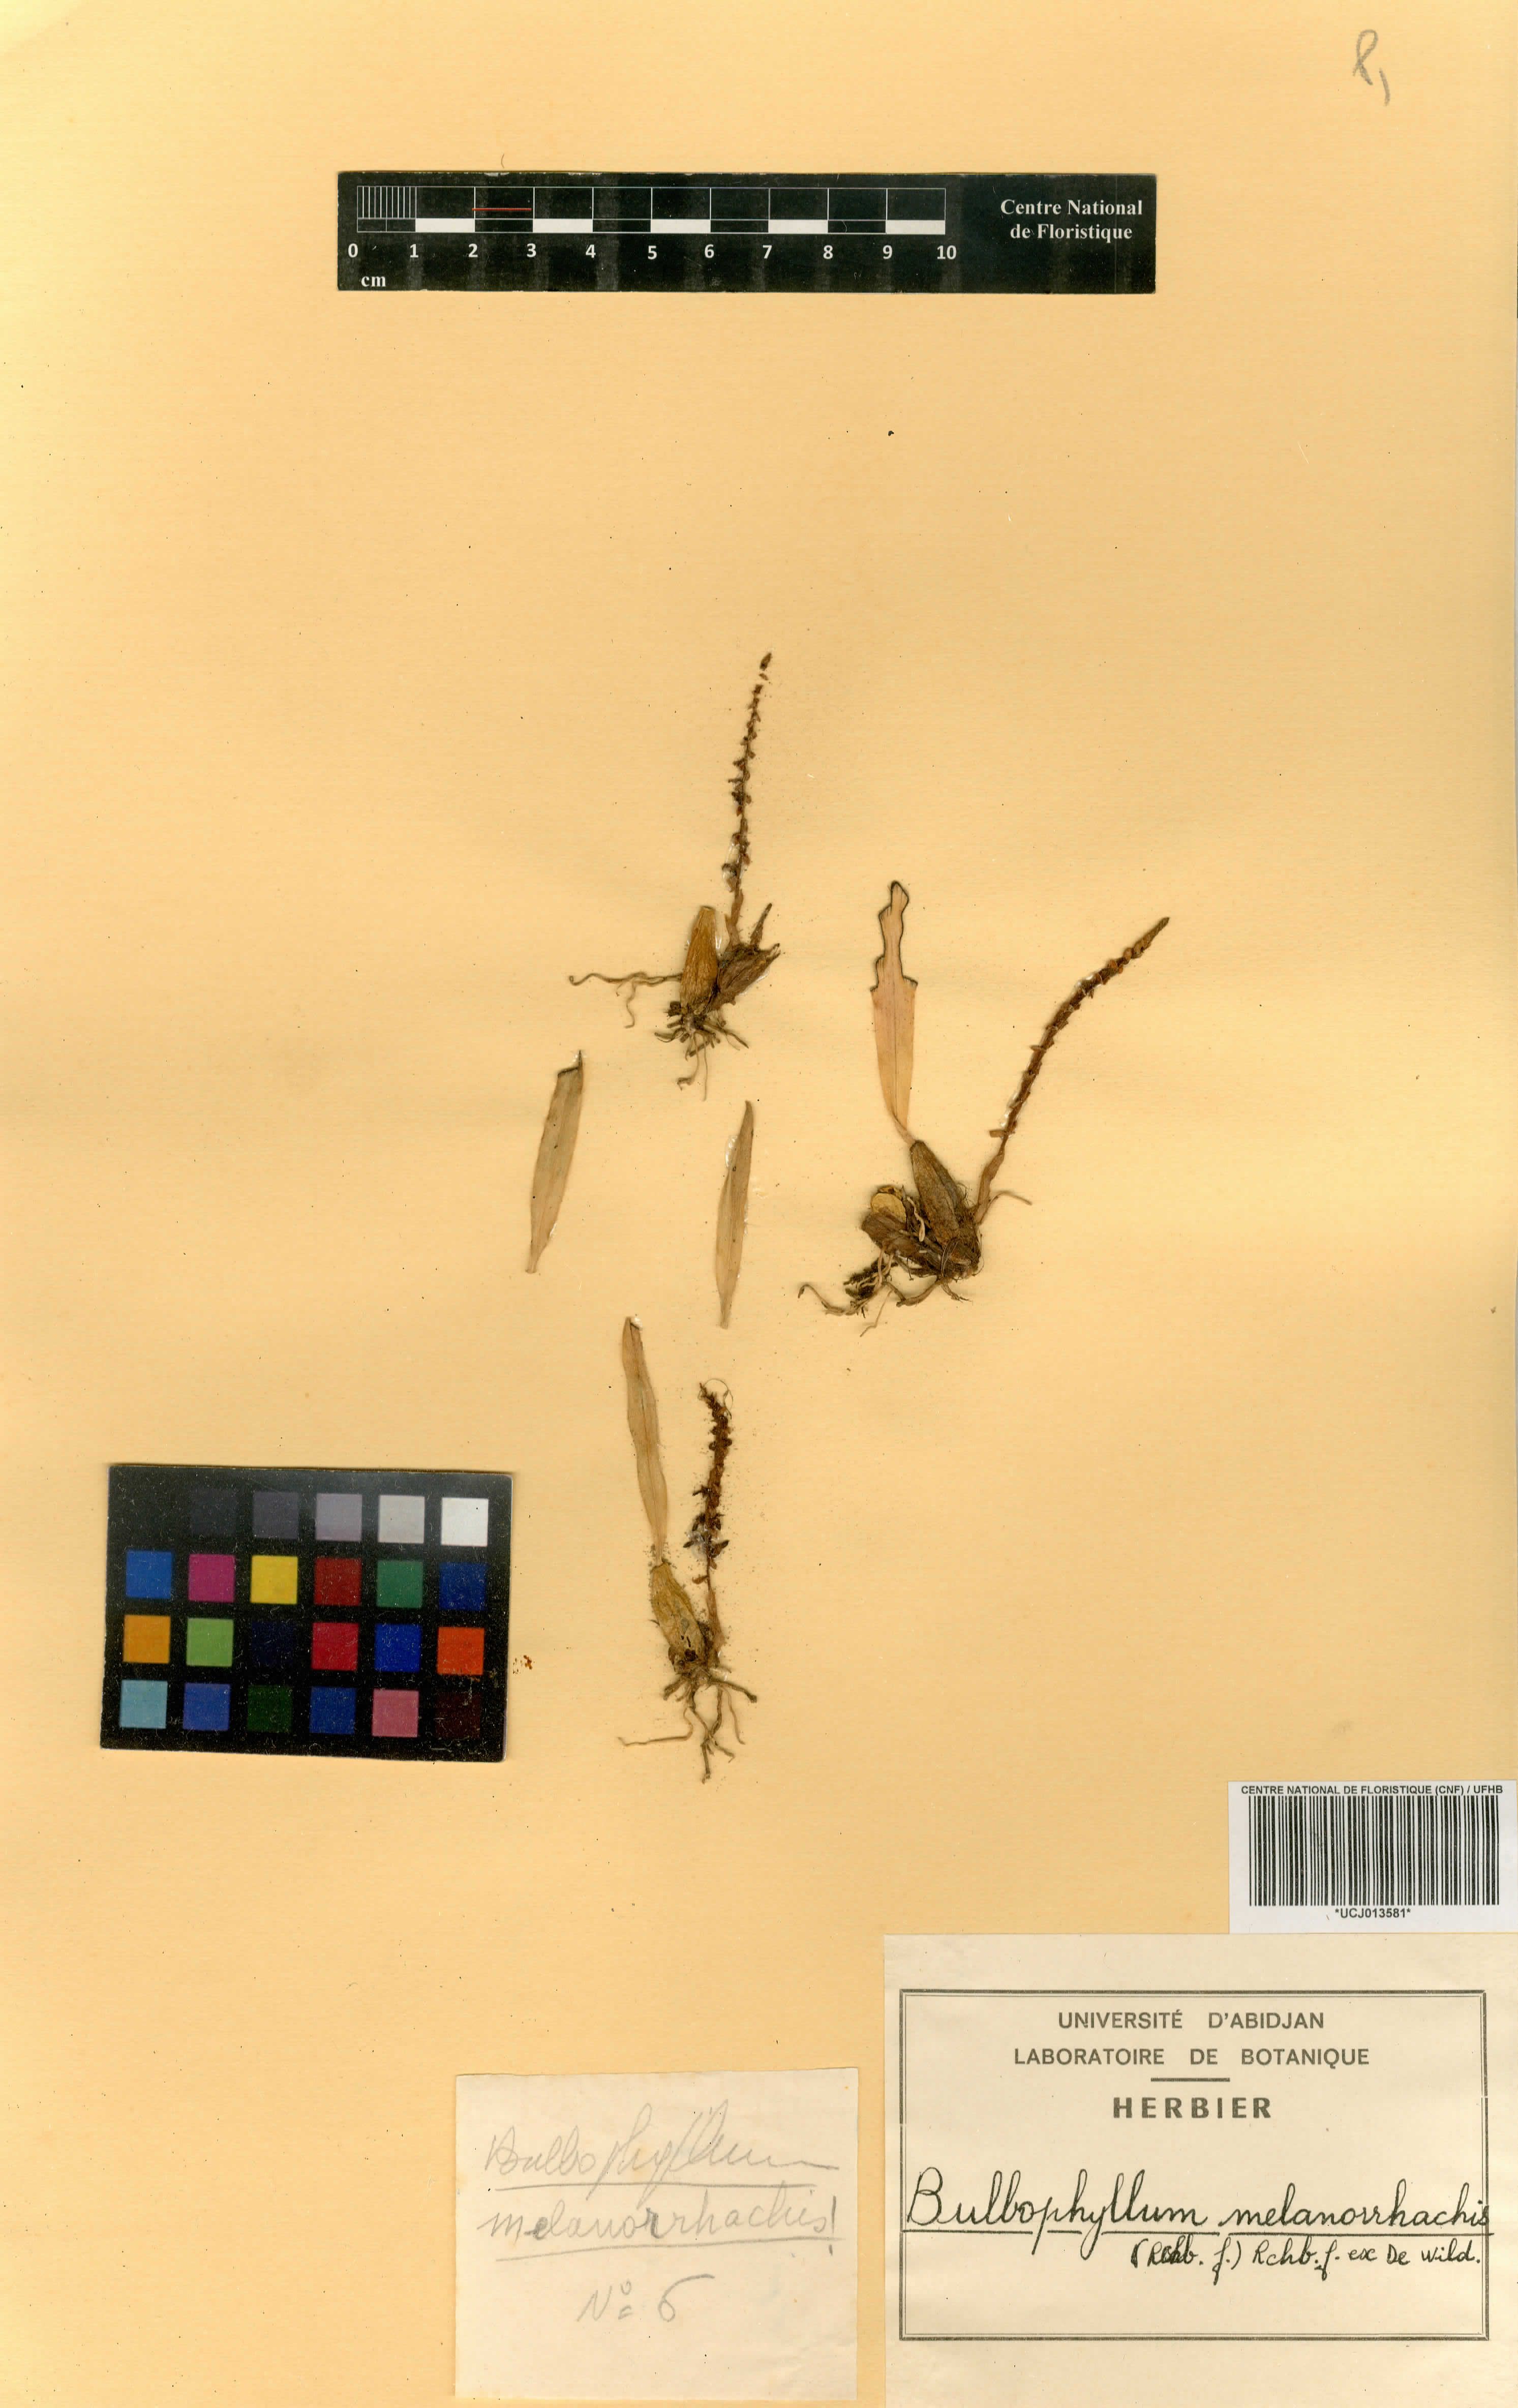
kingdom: Plantae
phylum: Tracheophyta
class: Liliopsida
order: Asparagales
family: Orchidaceae
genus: Bulbophyllum
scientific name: Bulbophyllum falcatum
